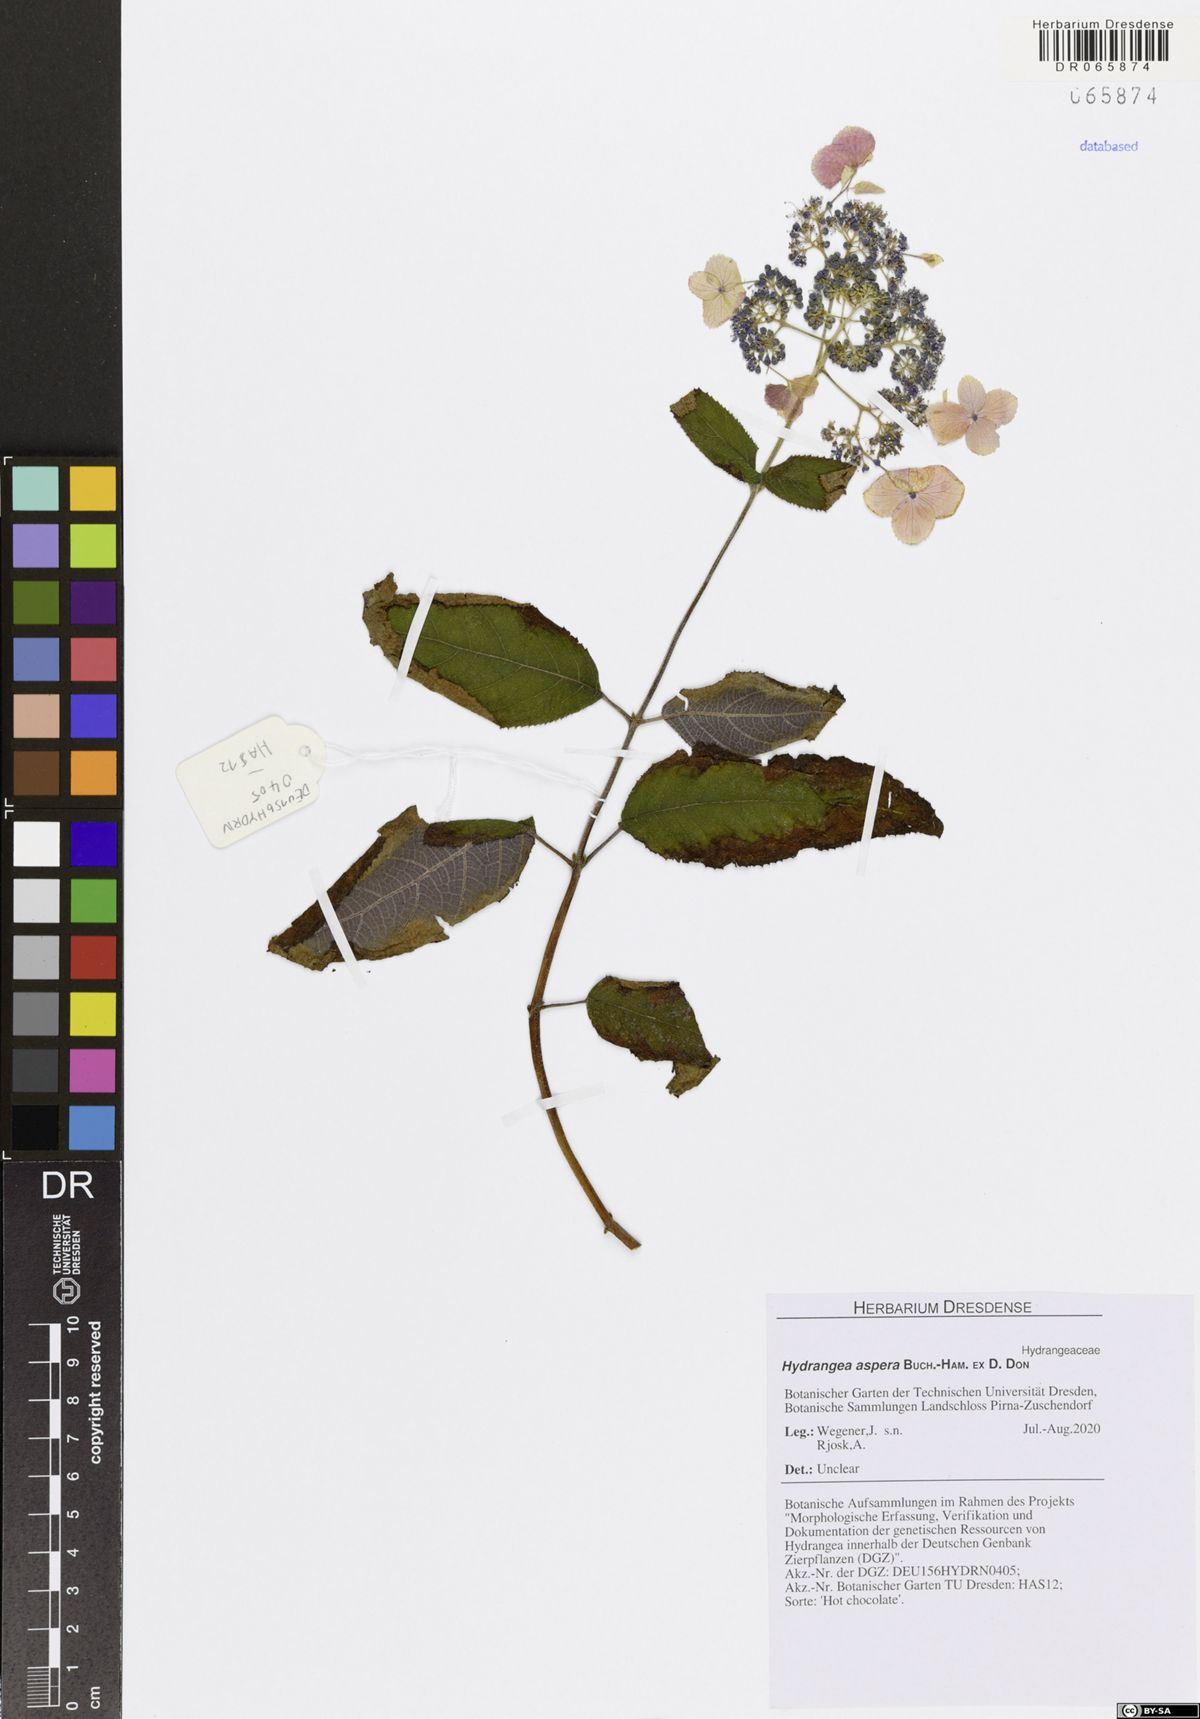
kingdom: Plantae
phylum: Tracheophyta
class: Magnoliopsida
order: Cornales
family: Hydrangeaceae
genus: Hydrangea
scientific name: Hydrangea aspera
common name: Rough-leaf hydrangea
